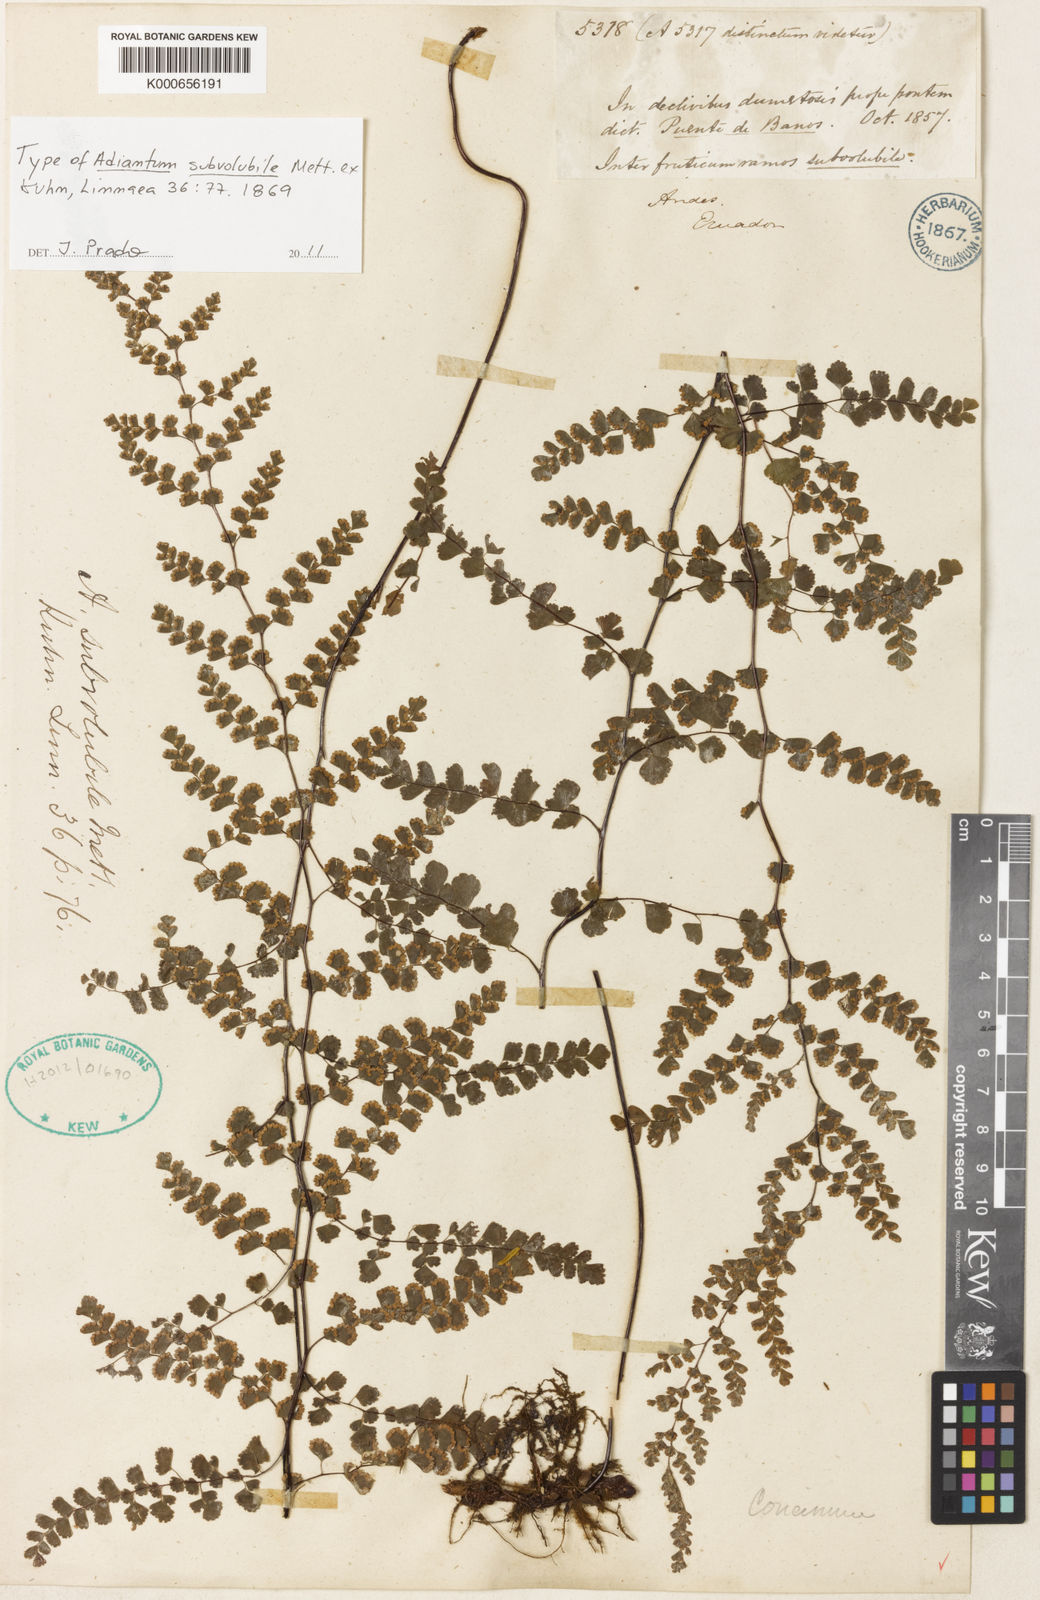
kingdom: Plantae
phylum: Tracheophyta
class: Polypodiopsida
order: Polypodiales
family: Pteridaceae
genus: Adiantum
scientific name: Adiantum
